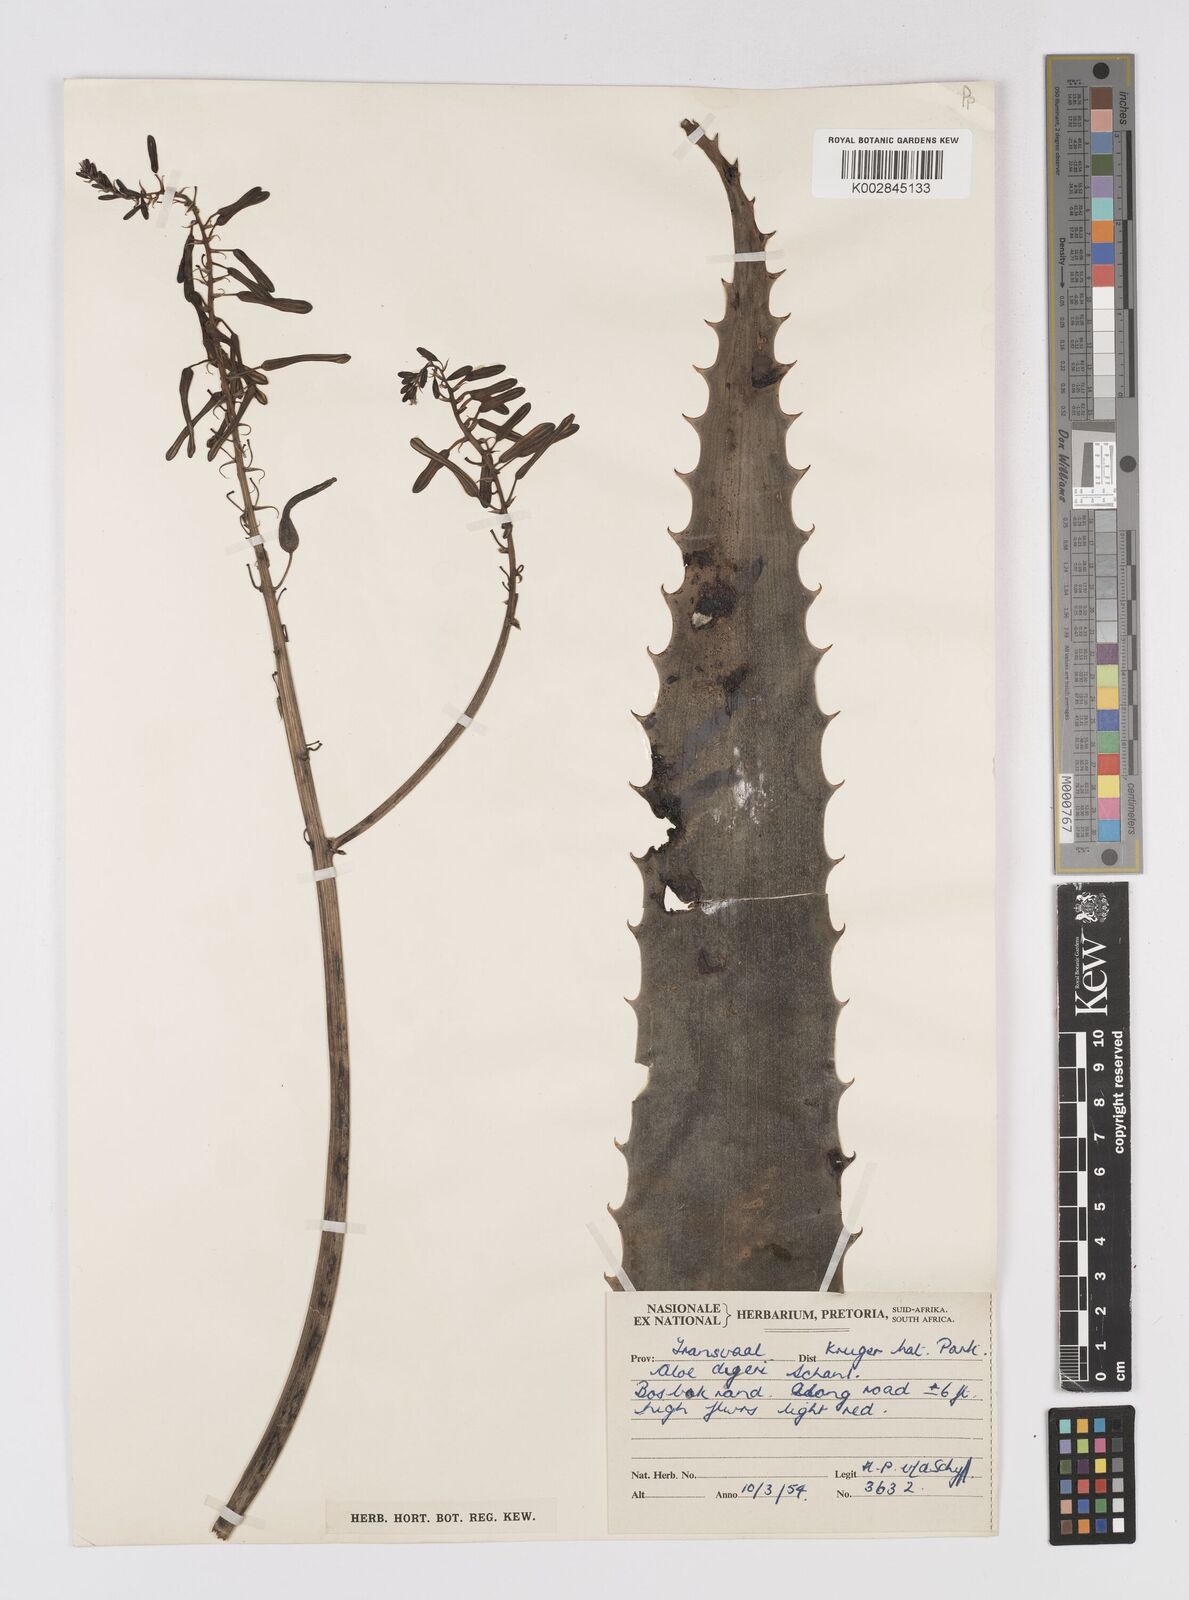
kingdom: Plantae
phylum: Tracheophyta
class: Liliopsida
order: Asparagales
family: Asphodelaceae
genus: Aloe
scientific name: Aloe dyeri
